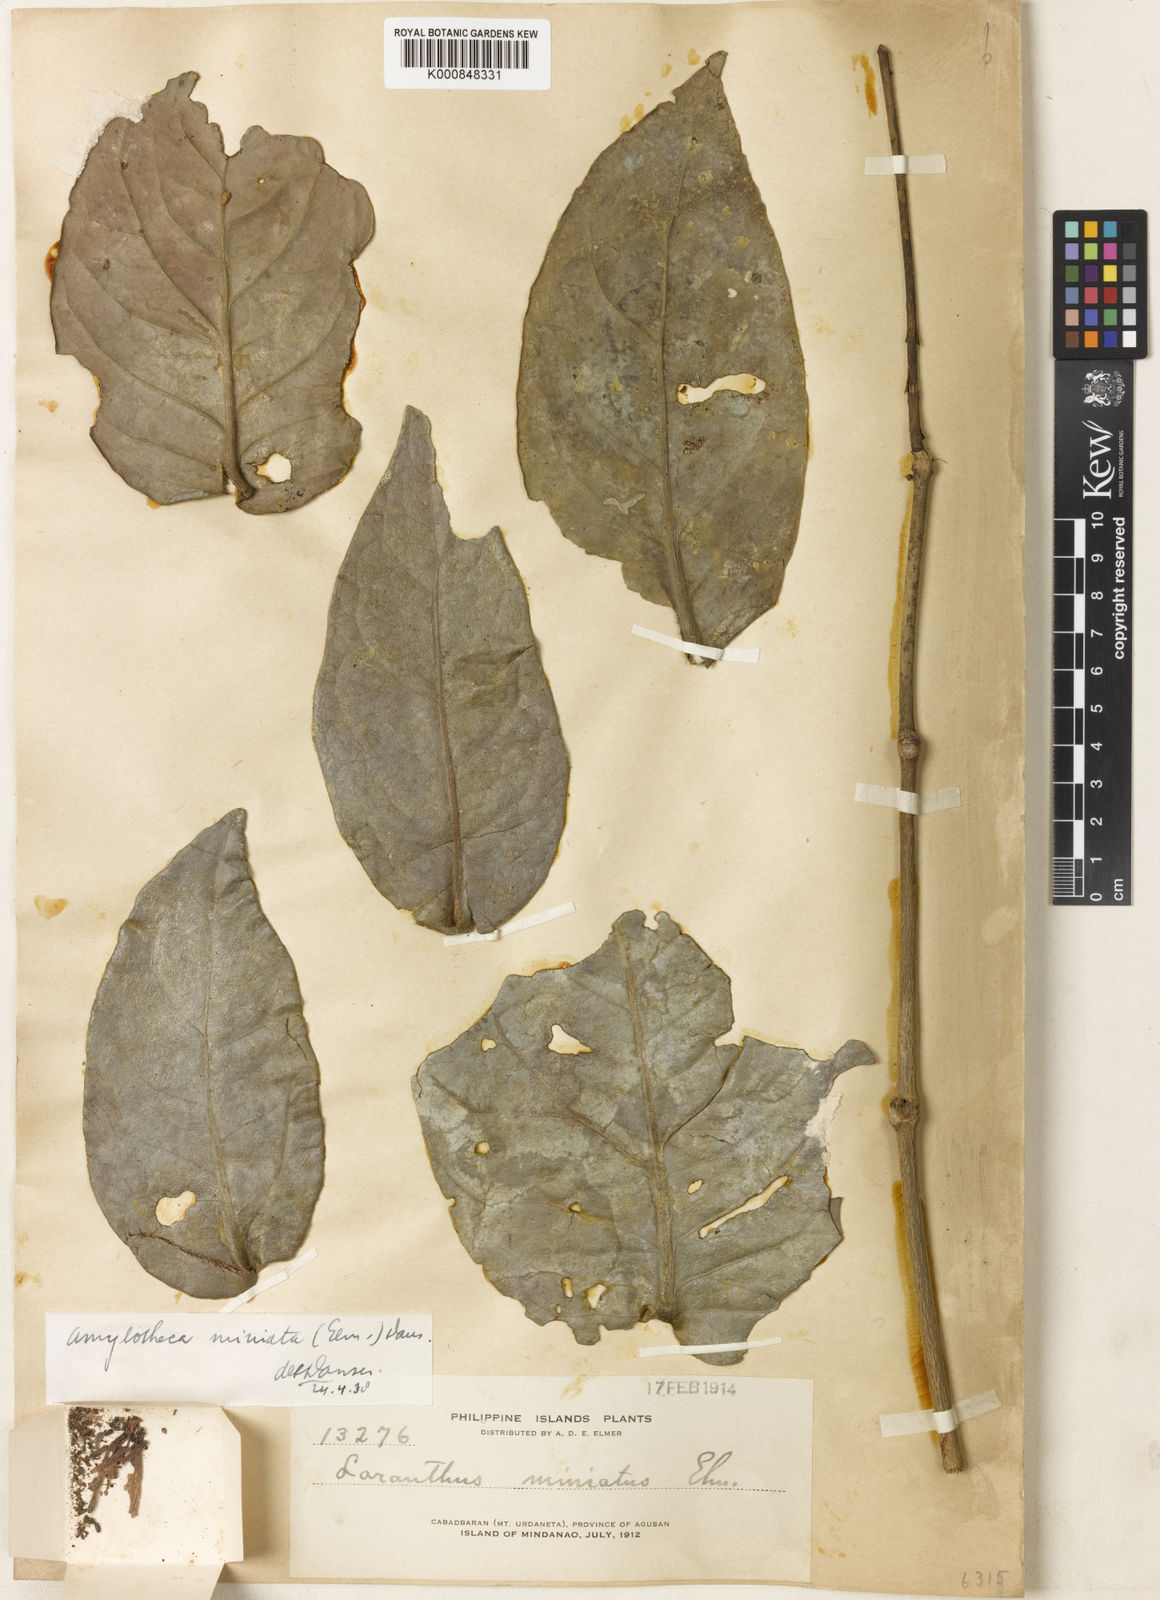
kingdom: Plantae
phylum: Tracheophyta
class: Magnoliopsida
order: Santalales
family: Loranthaceae
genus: Decaisnina
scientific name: Decaisnina miniata
